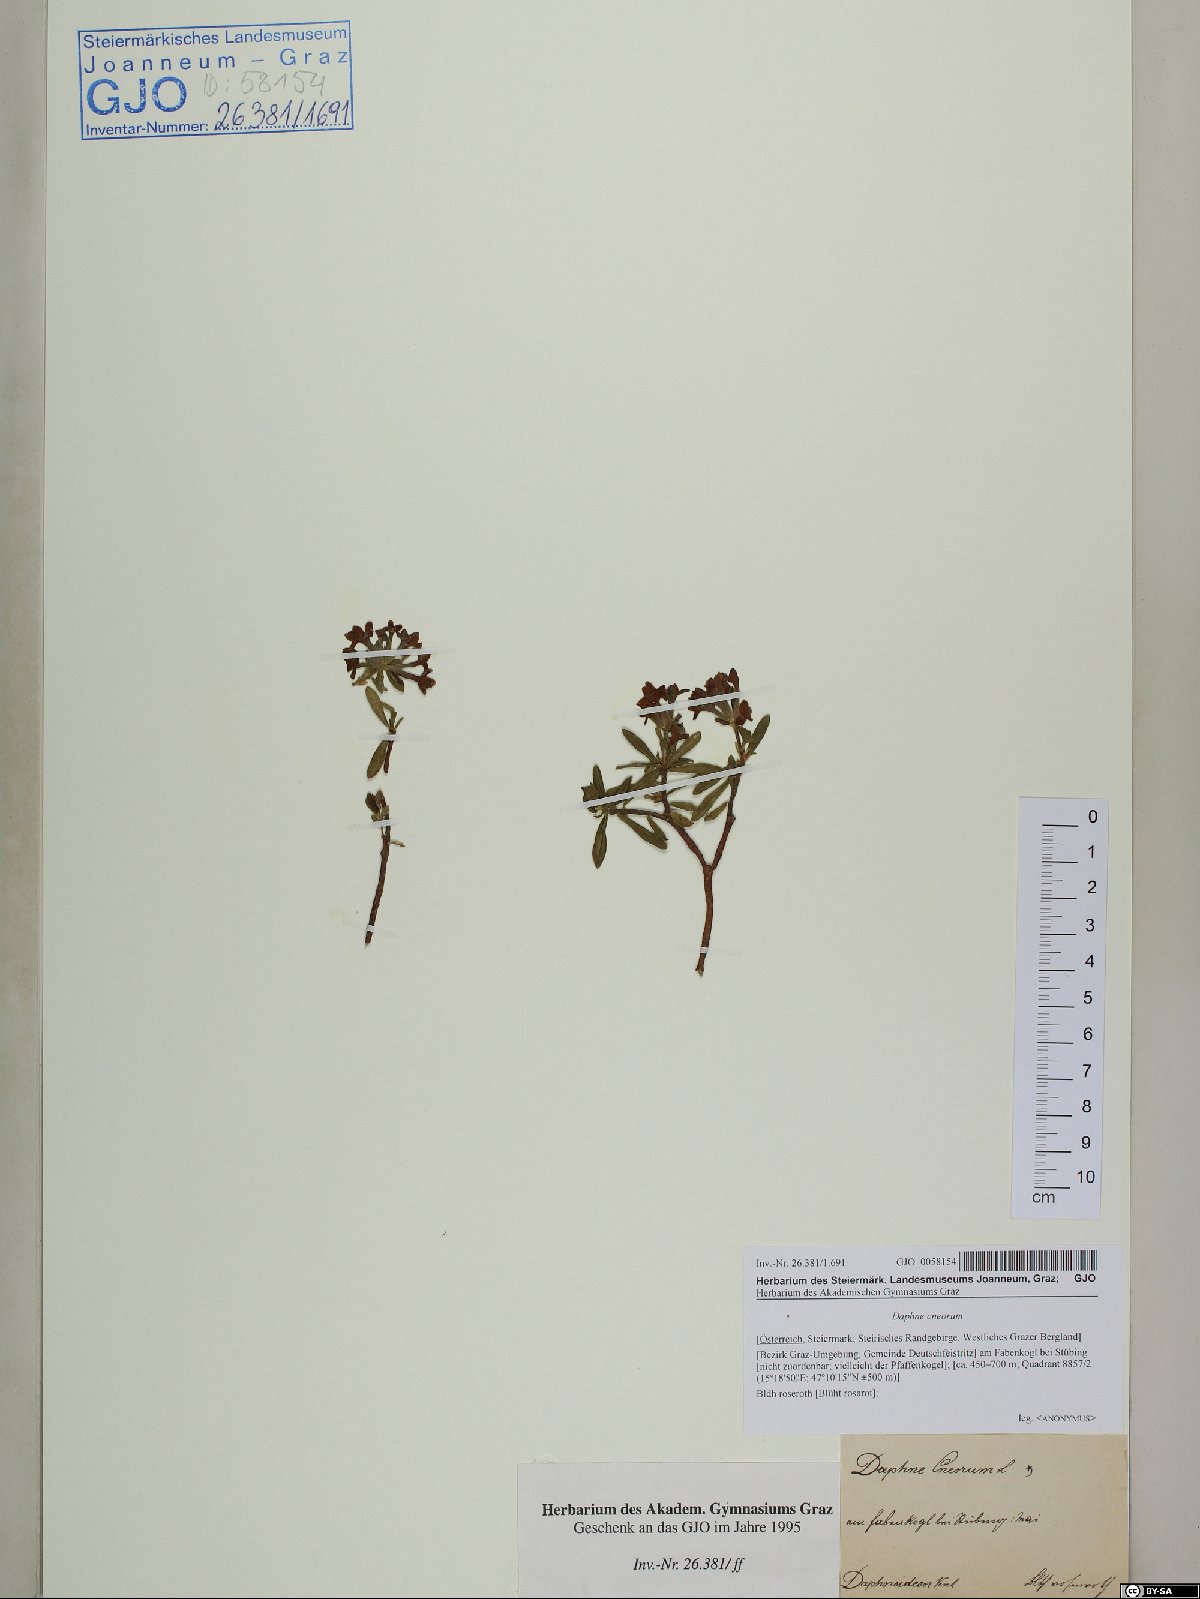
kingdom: Plantae
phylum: Tracheophyta
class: Magnoliopsida
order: Malvales
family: Thymelaeaceae
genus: Daphne
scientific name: Daphne cneorum
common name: Garland-flower
